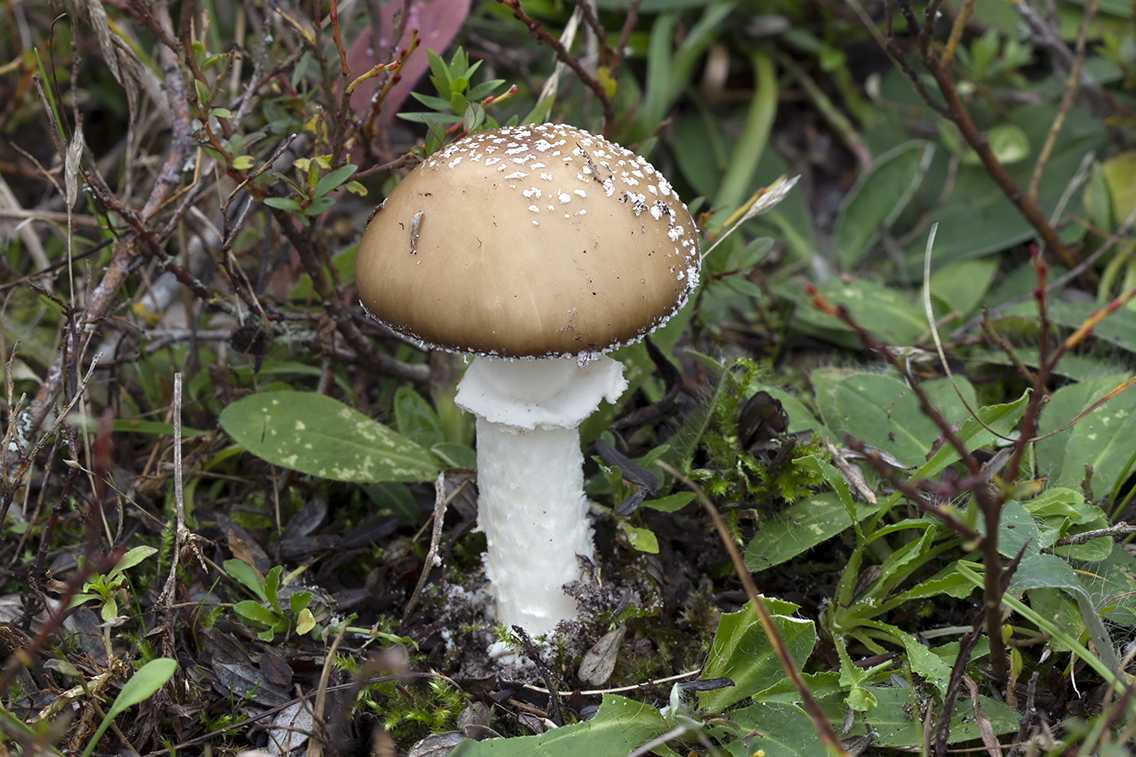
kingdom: Fungi
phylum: Basidiomycota
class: Agaricomycetes
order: Agaricales
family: Amanitaceae
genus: Amanita
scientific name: Amanita pantherina
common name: panter-fluesvamp
